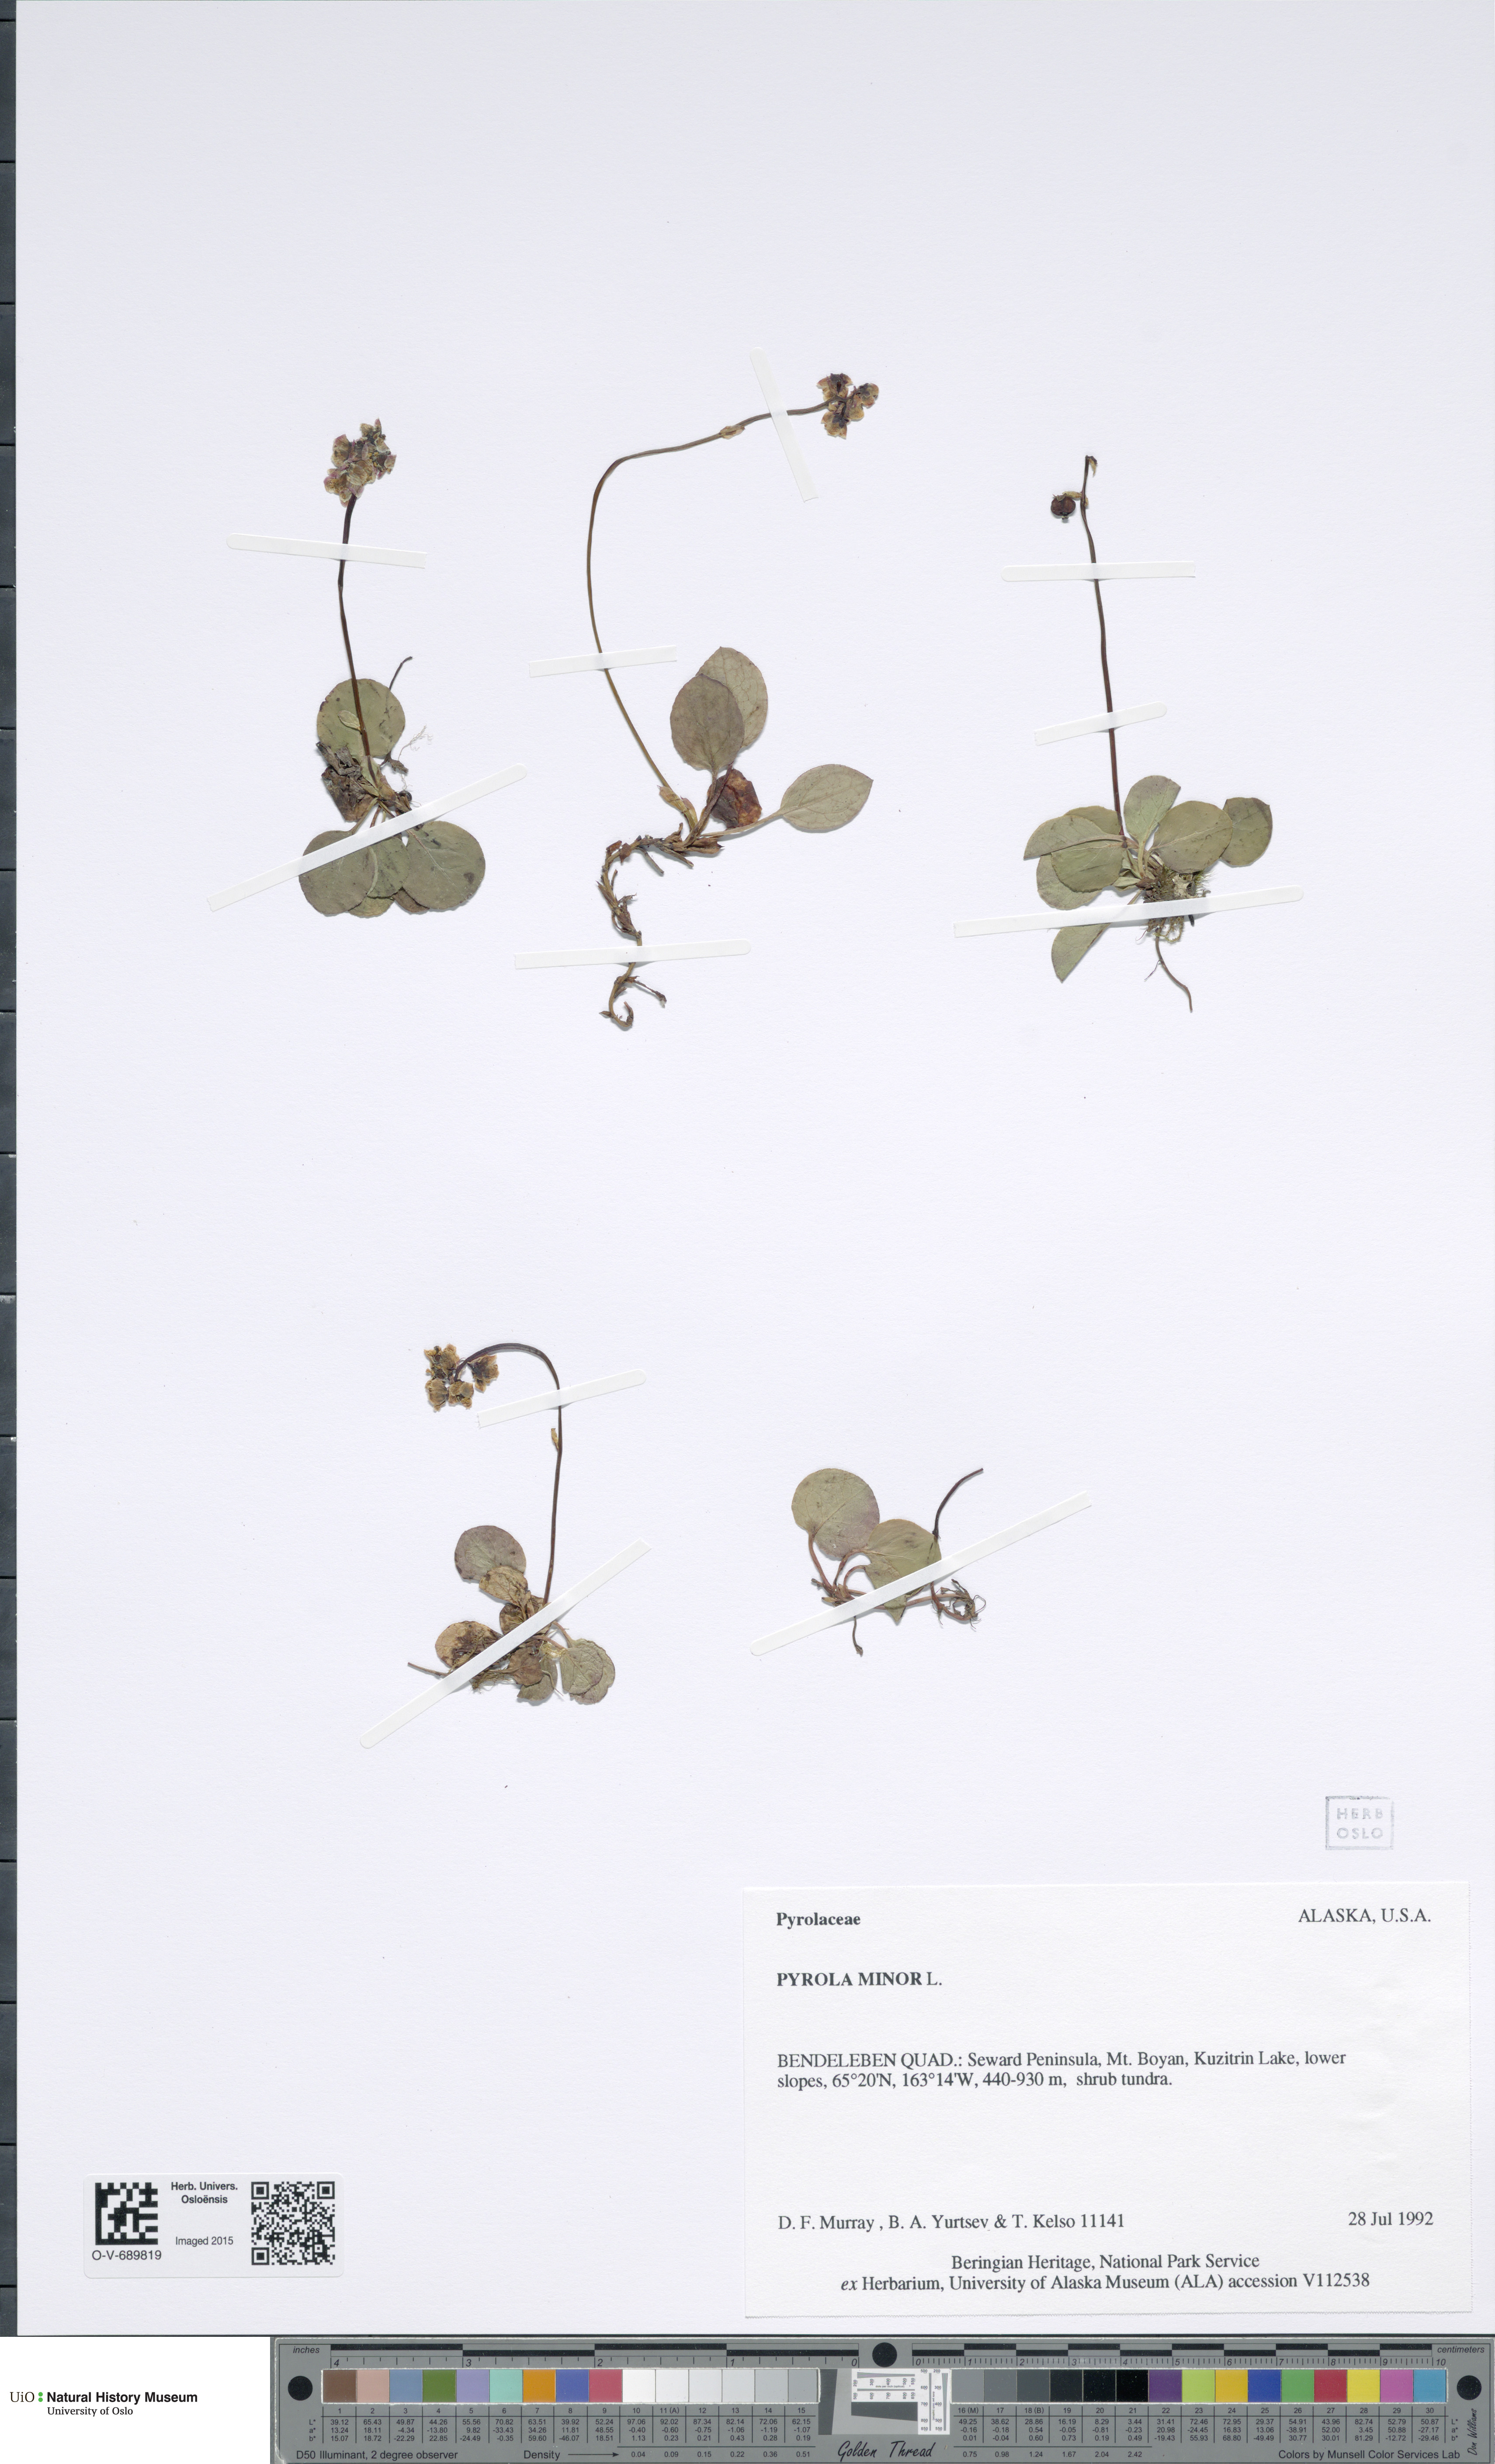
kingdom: Plantae
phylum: Tracheophyta
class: Magnoliopsida
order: Ericales
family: Ericaceae
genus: Pyrola
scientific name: Pyrola minor
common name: Common wintergreen
